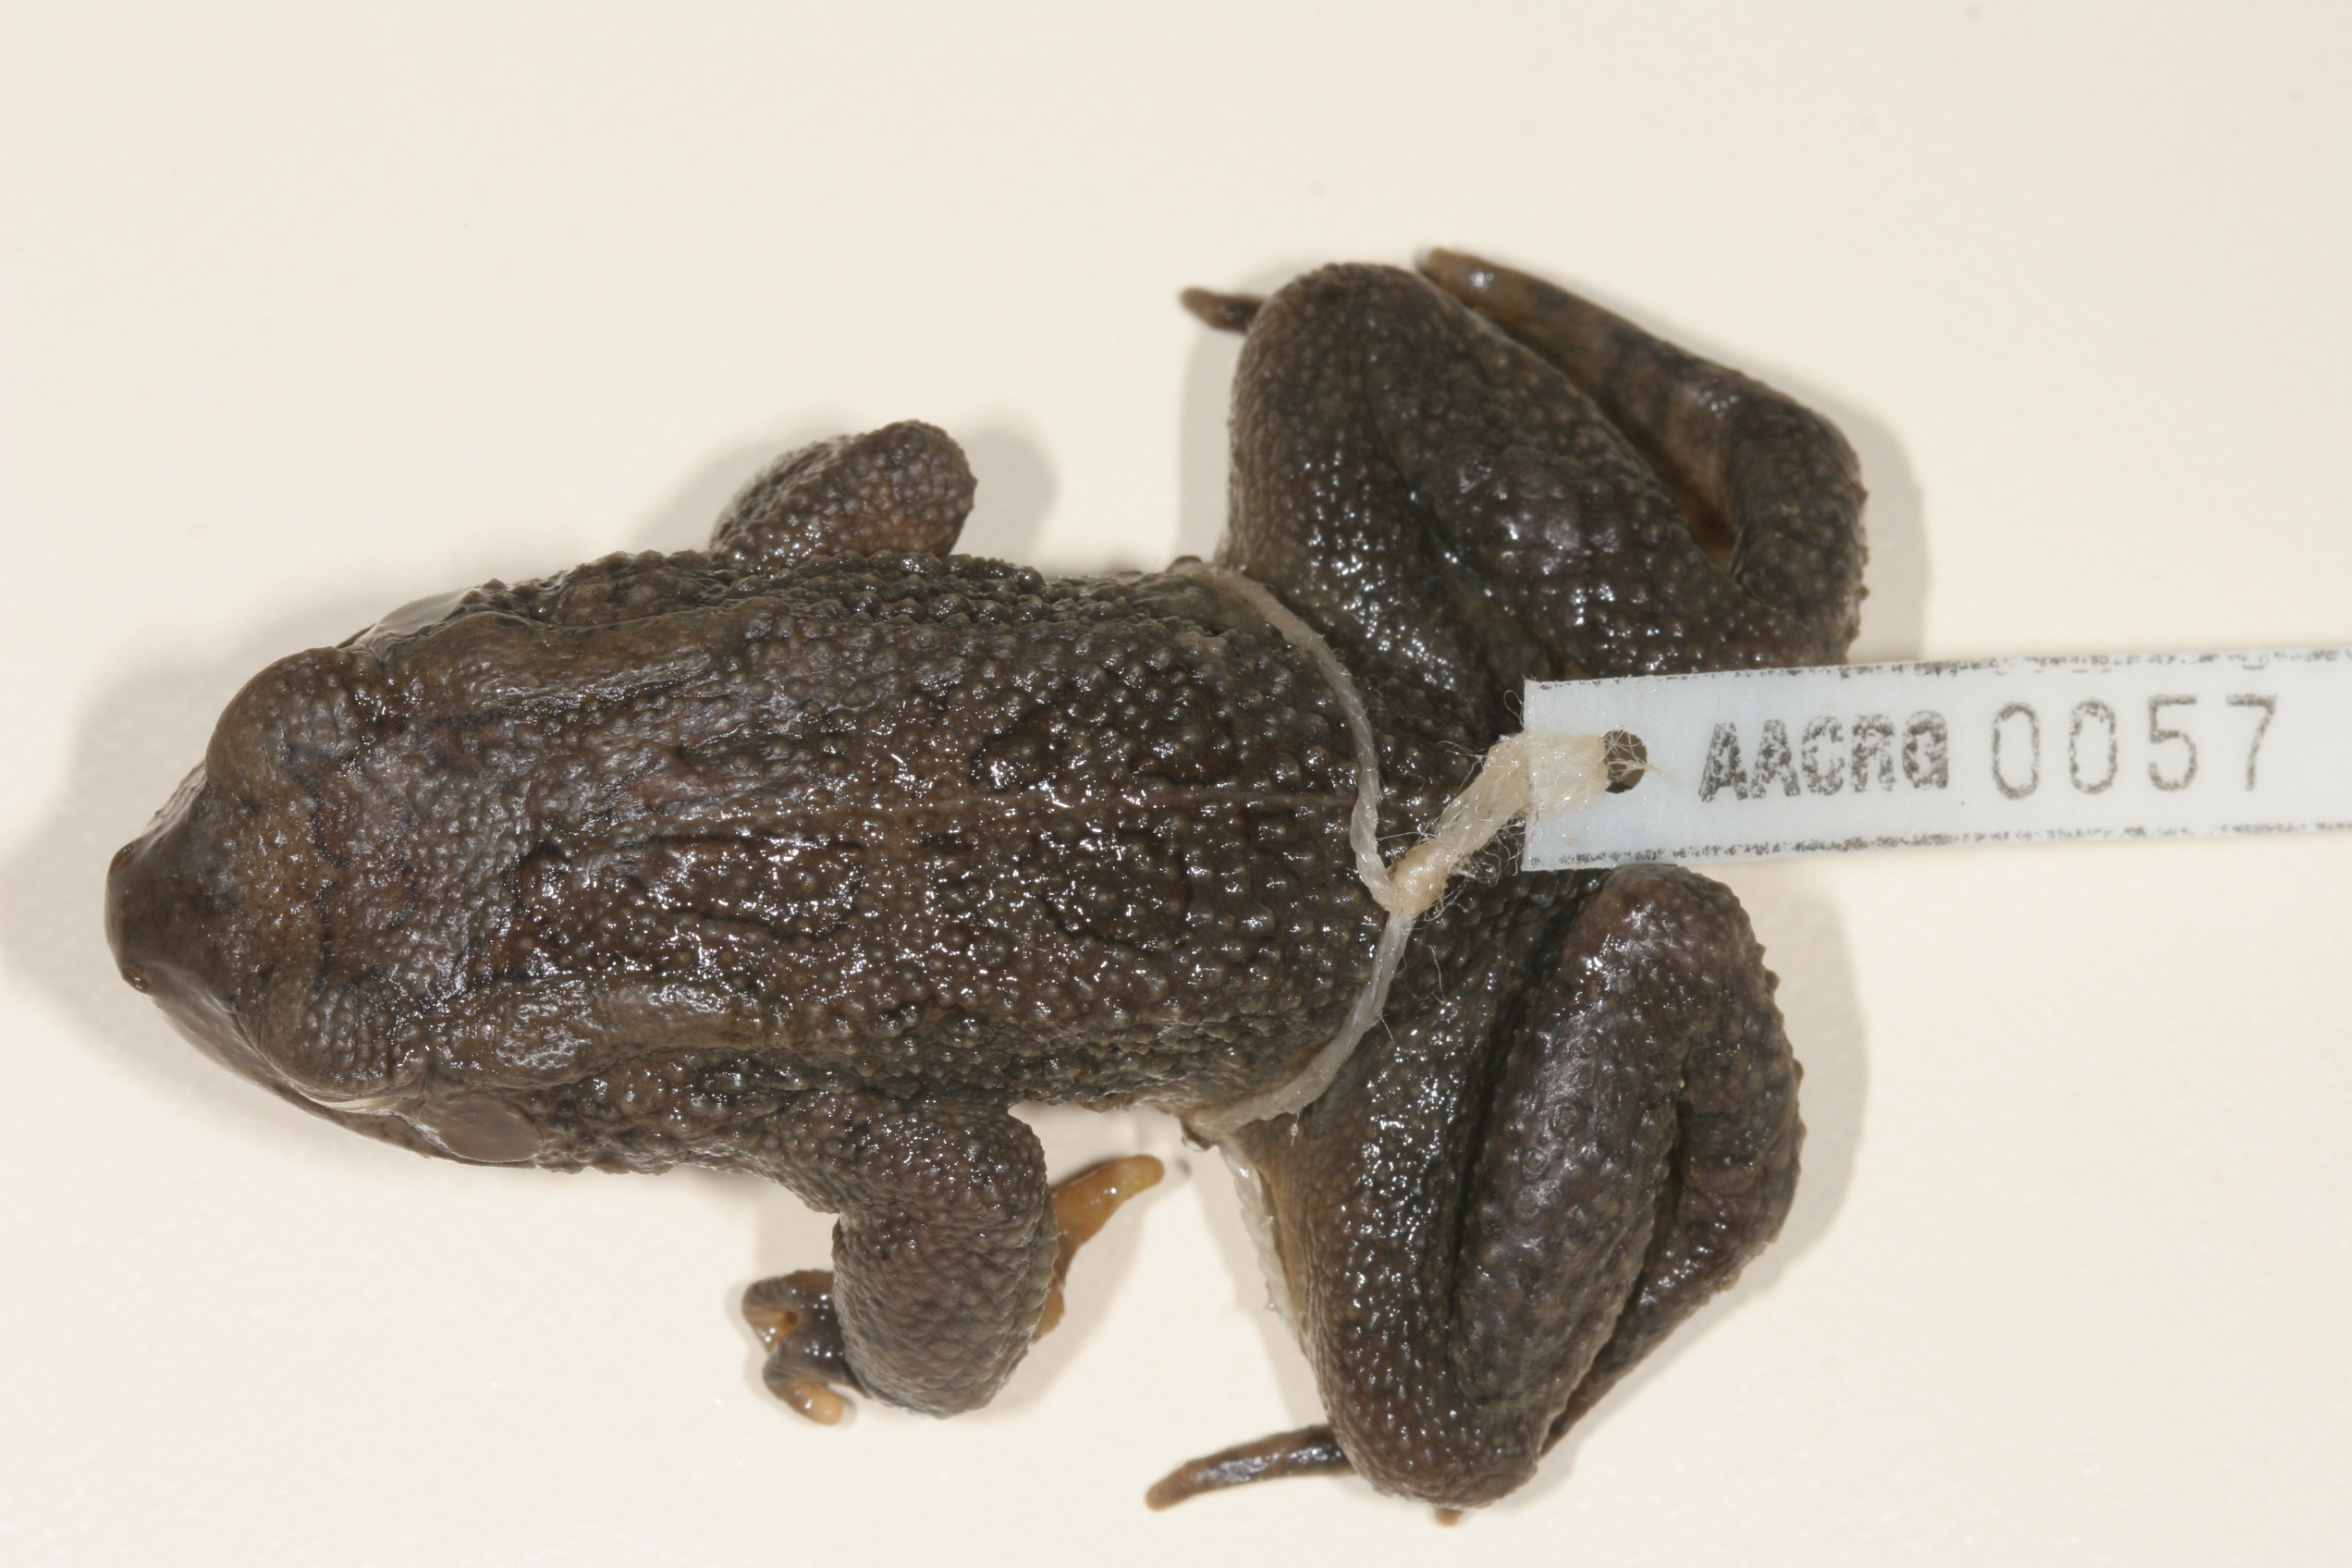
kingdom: Animalia
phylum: Chordata
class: Amphibia
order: Anura
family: Bufonidae
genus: Sclerophrys
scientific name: Sclerophrys gutturalis
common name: African common toad
